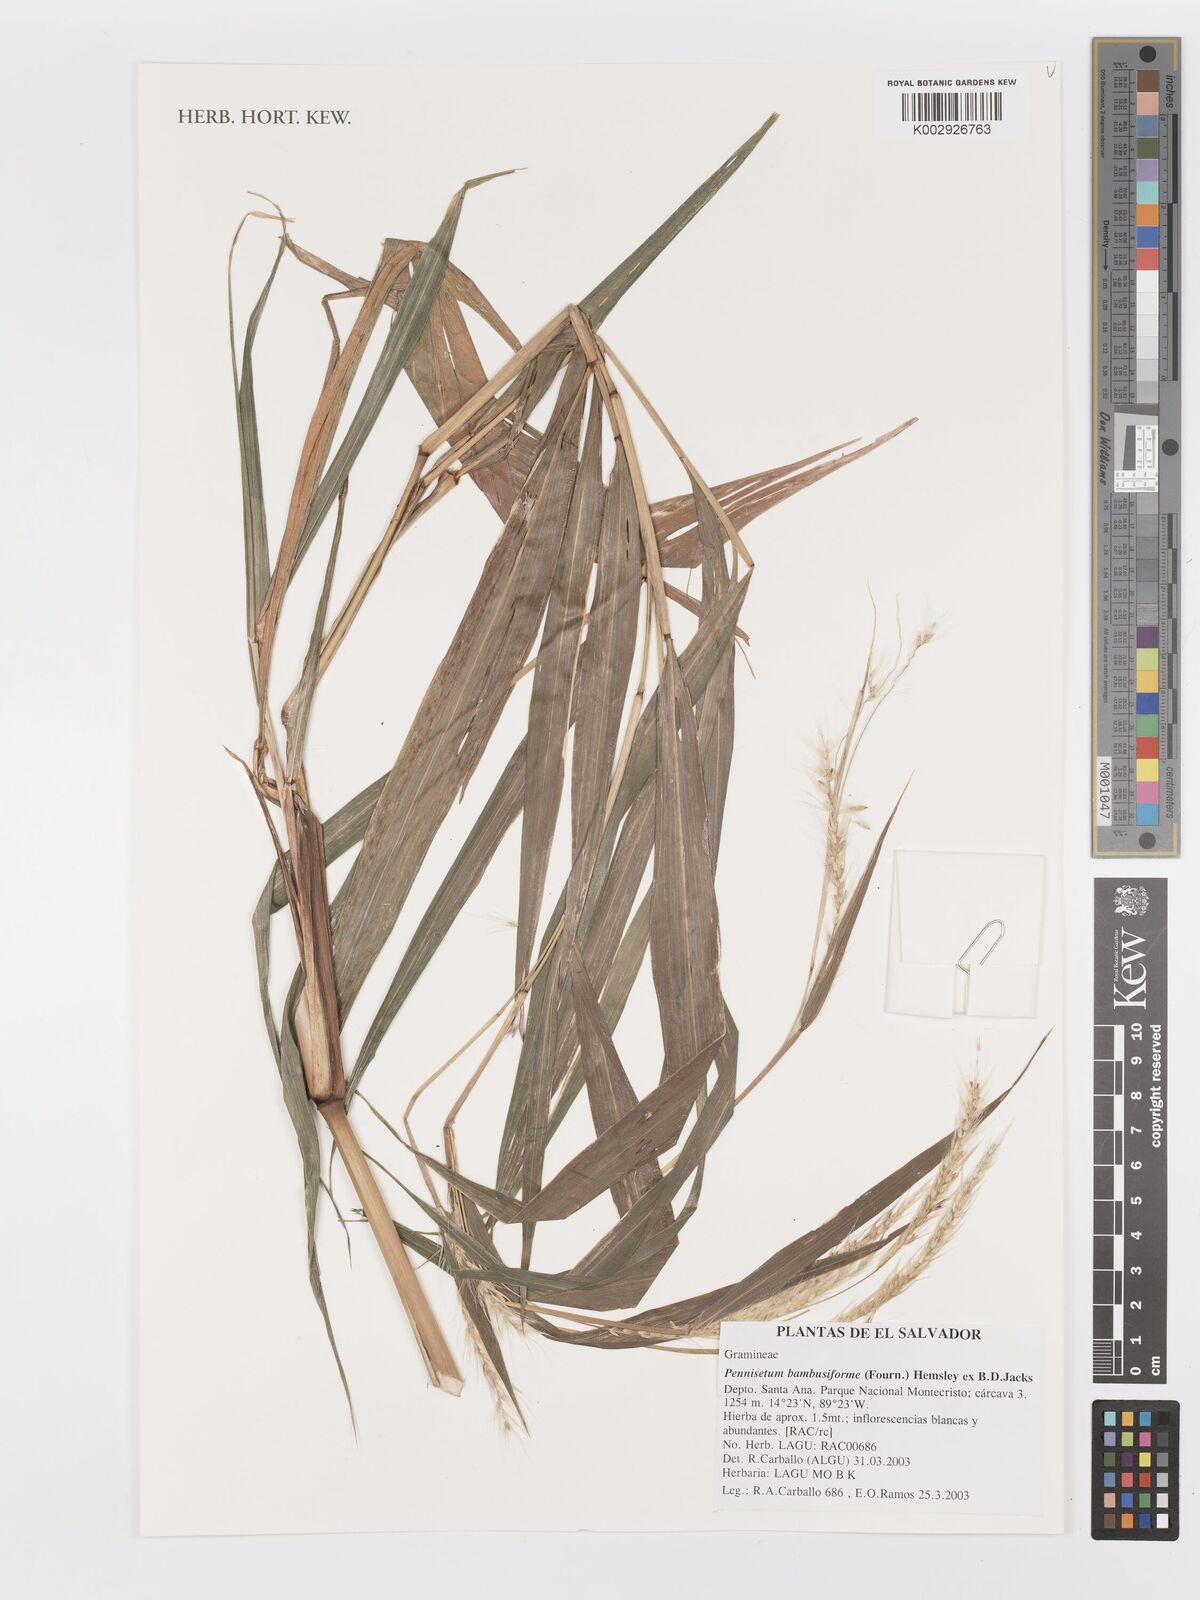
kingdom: Plantae
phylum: Tracheophyta
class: Liliopsida
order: Poales
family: Poaceae
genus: Cenchrus
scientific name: Cenchrus preslii
